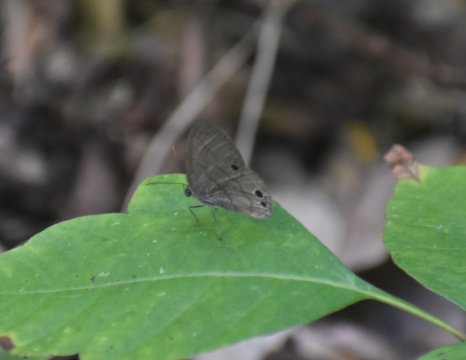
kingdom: Animalia
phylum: Arthropoda
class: Insecta
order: Lepidoptera
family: Nymphalidae
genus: Hermeuptychia
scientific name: Hermeuptychia intricata
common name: Intricate Satyr
